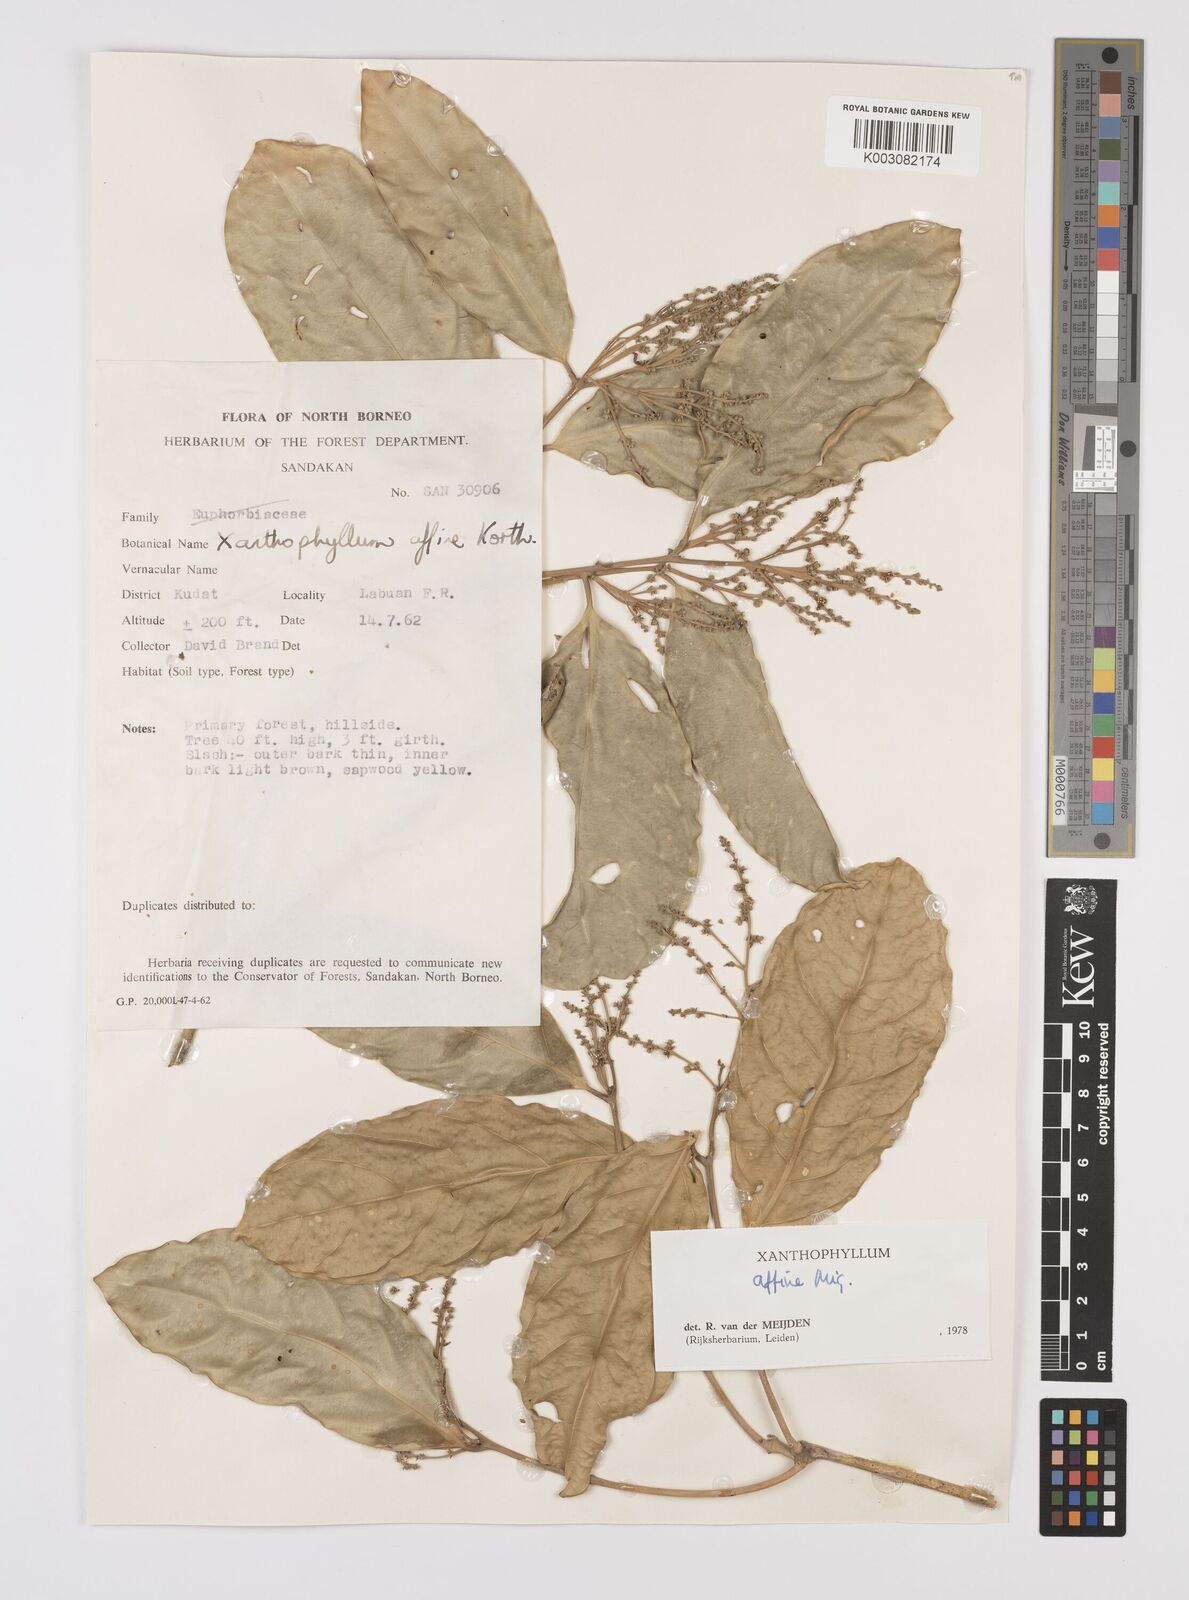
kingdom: Plantae
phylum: Tracheophyta
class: Magnoliopsida
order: Fabales
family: Polygalaceae
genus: Xanthophyllum
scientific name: Xanthophyllum flavescens
